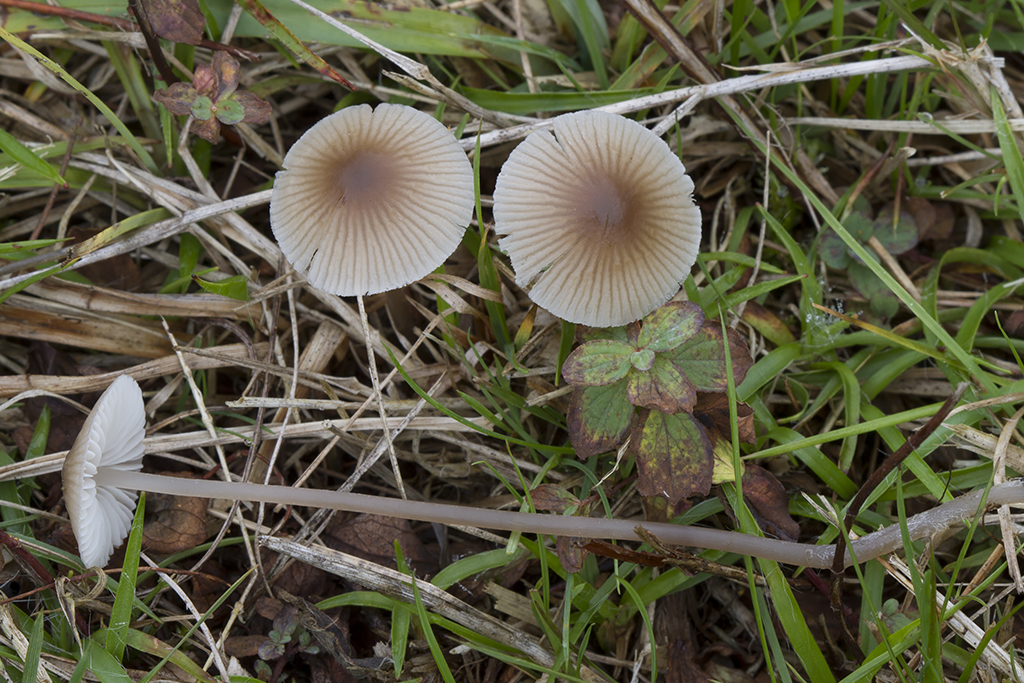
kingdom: Fungi
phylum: Basidiomycota
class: Agaricomycetes
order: Agaricales
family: Mycenaceae
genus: Mycena
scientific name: Mycena leptocephala
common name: klor-huesvamp
